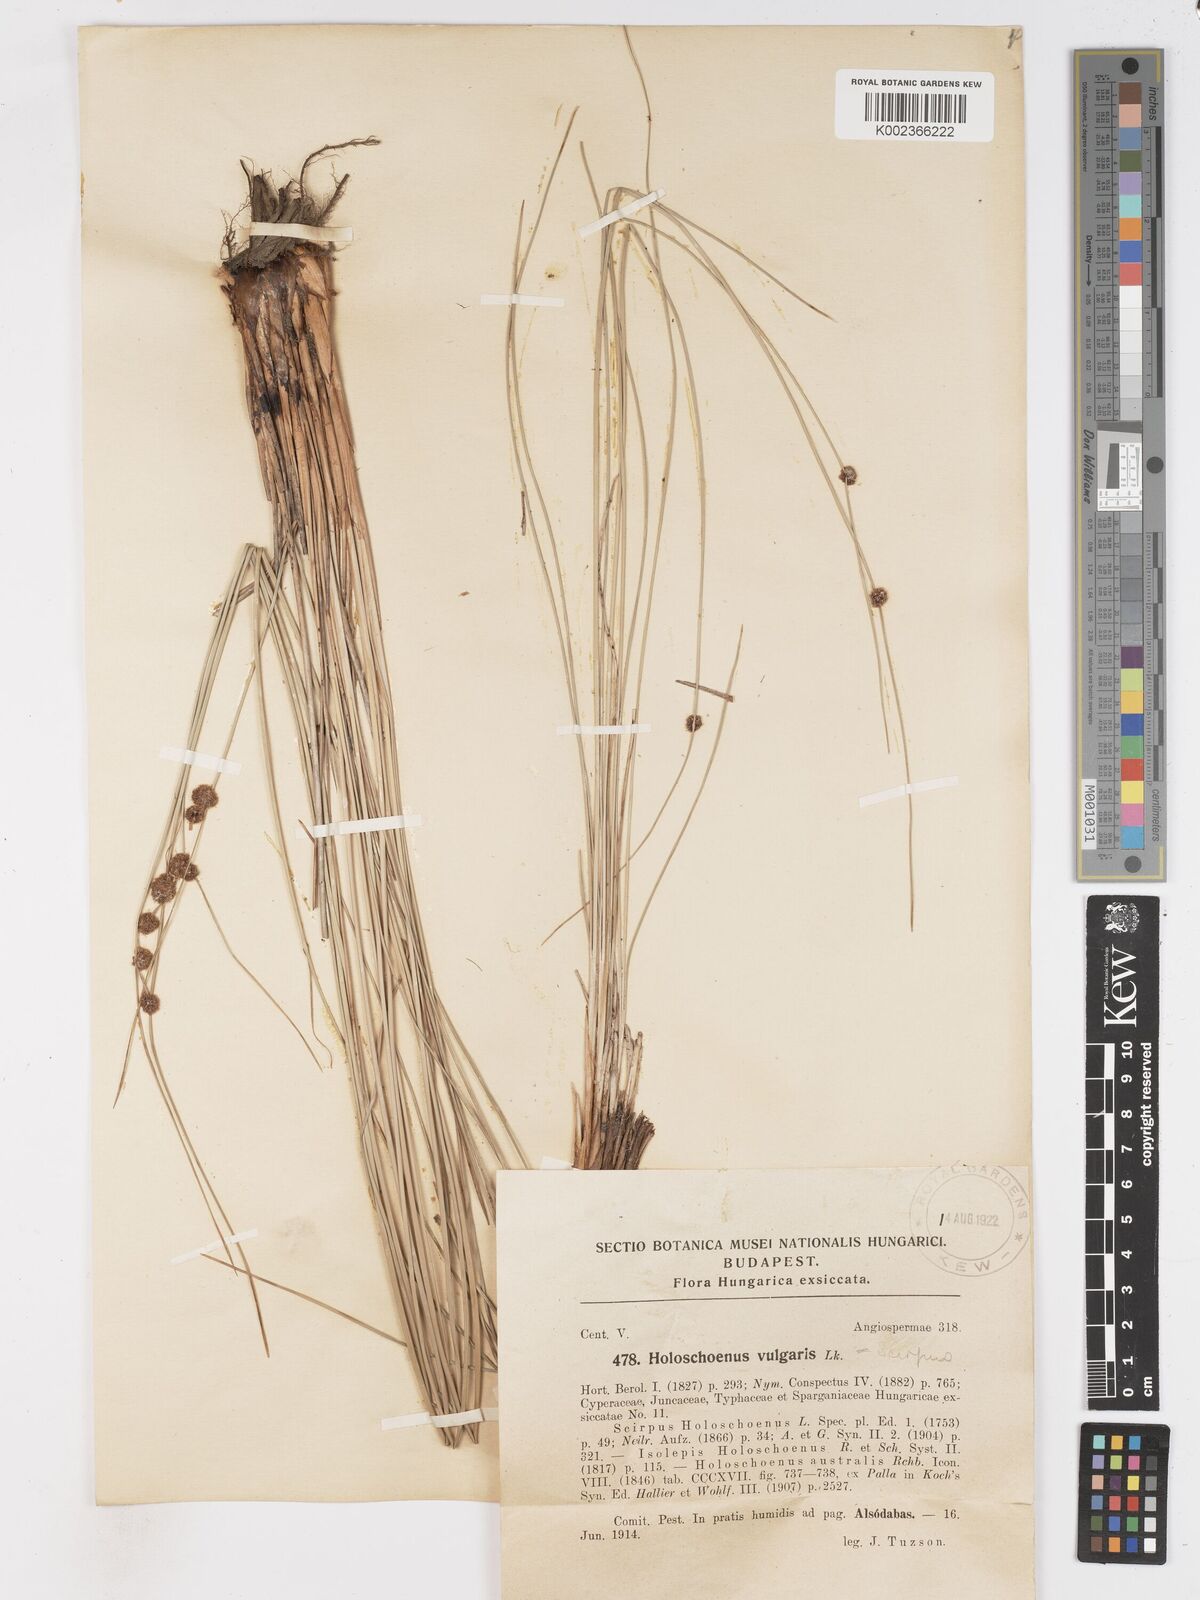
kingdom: Plantae
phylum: Tracheophyta
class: Liliopsida
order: Poales
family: Cyperaceae
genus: Scirpoides
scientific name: Scirpoides holoschoenus
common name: Round-headed club-rush
